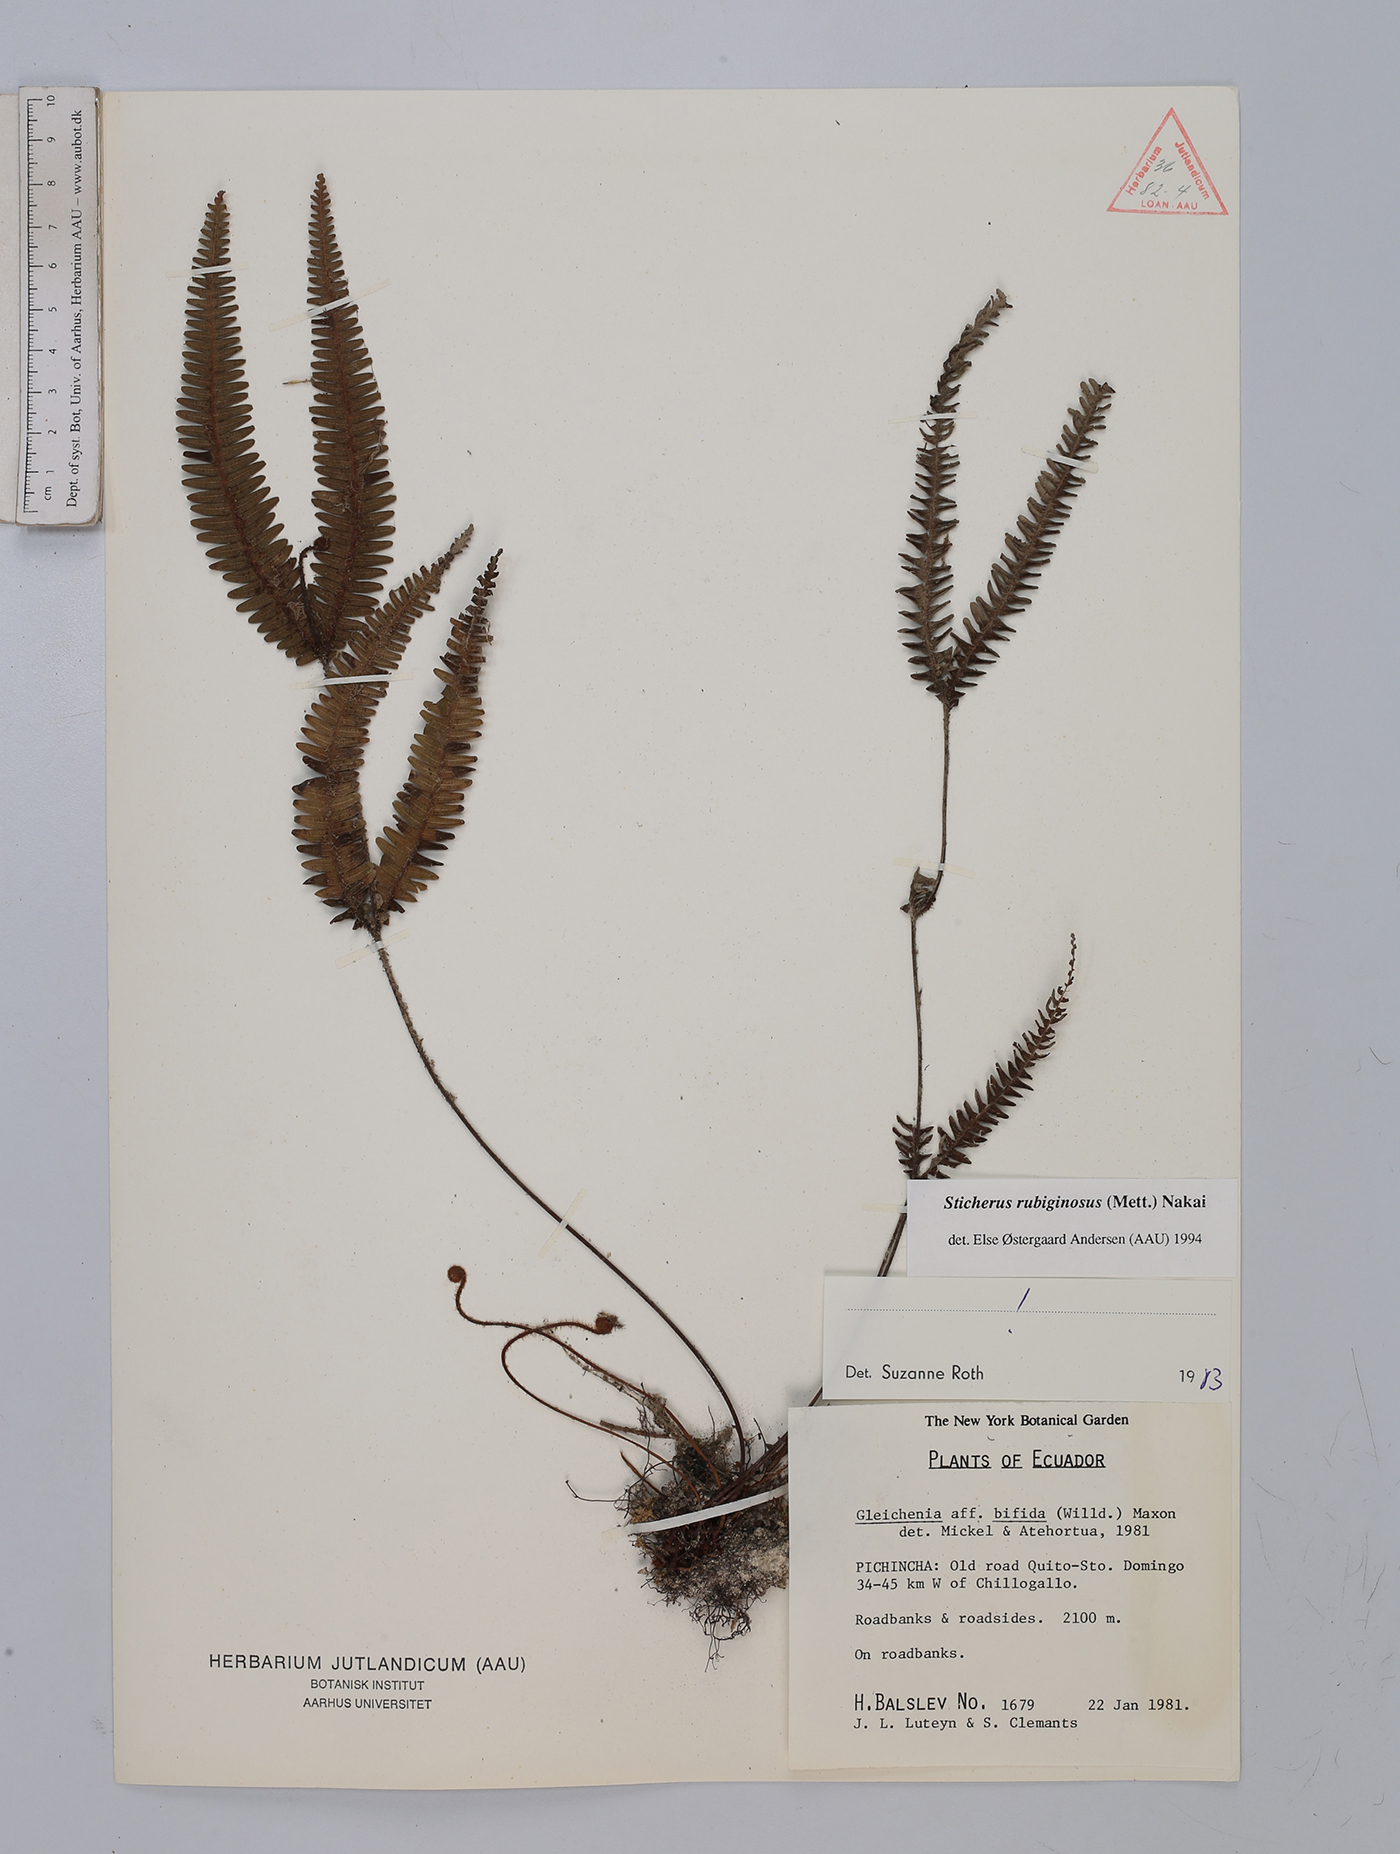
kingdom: Plantae
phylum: Tracheophyta
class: Polypodiopsida
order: Gleicheniales
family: Gleicheniaceae
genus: Sticherus
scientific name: Sticherus rubiginosus
